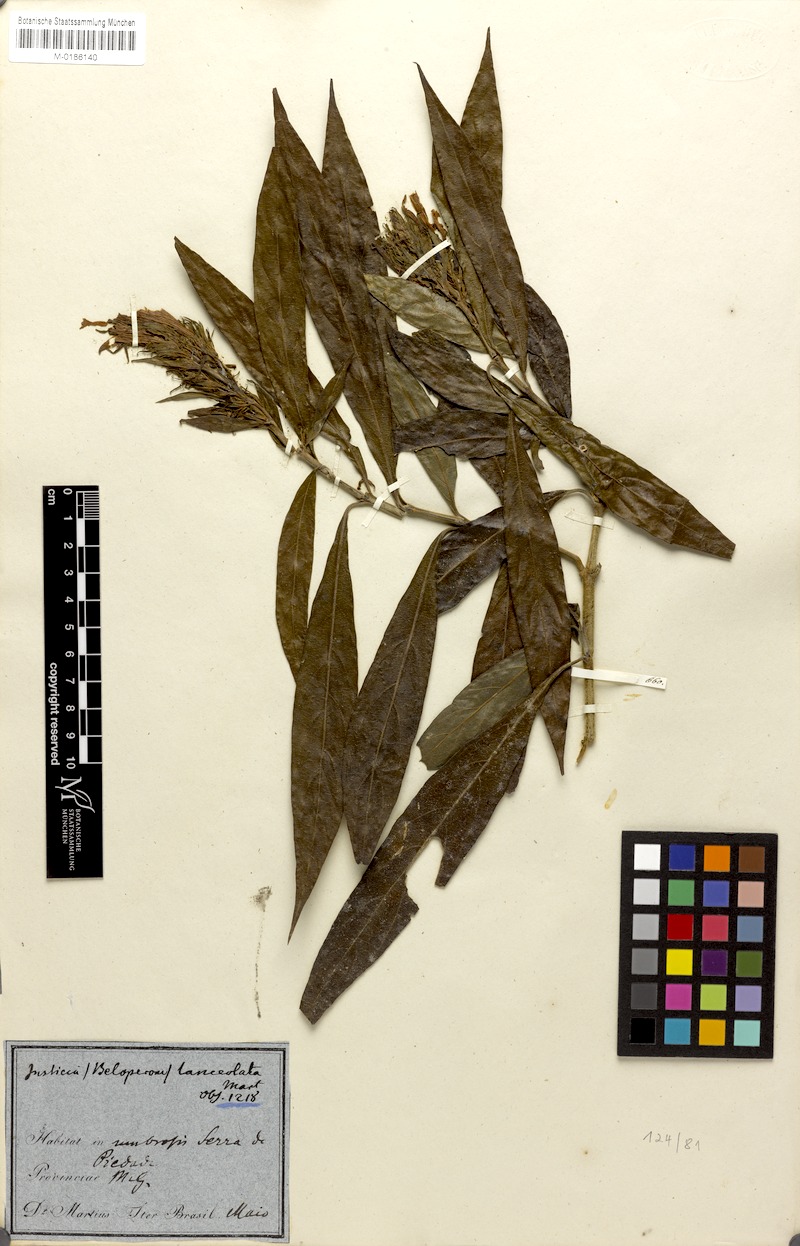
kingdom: Plantae
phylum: Tracheophyta
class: Magnoliopsida
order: Lamiales
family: Acanthaceae
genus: Justicia
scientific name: Justicia minensis
